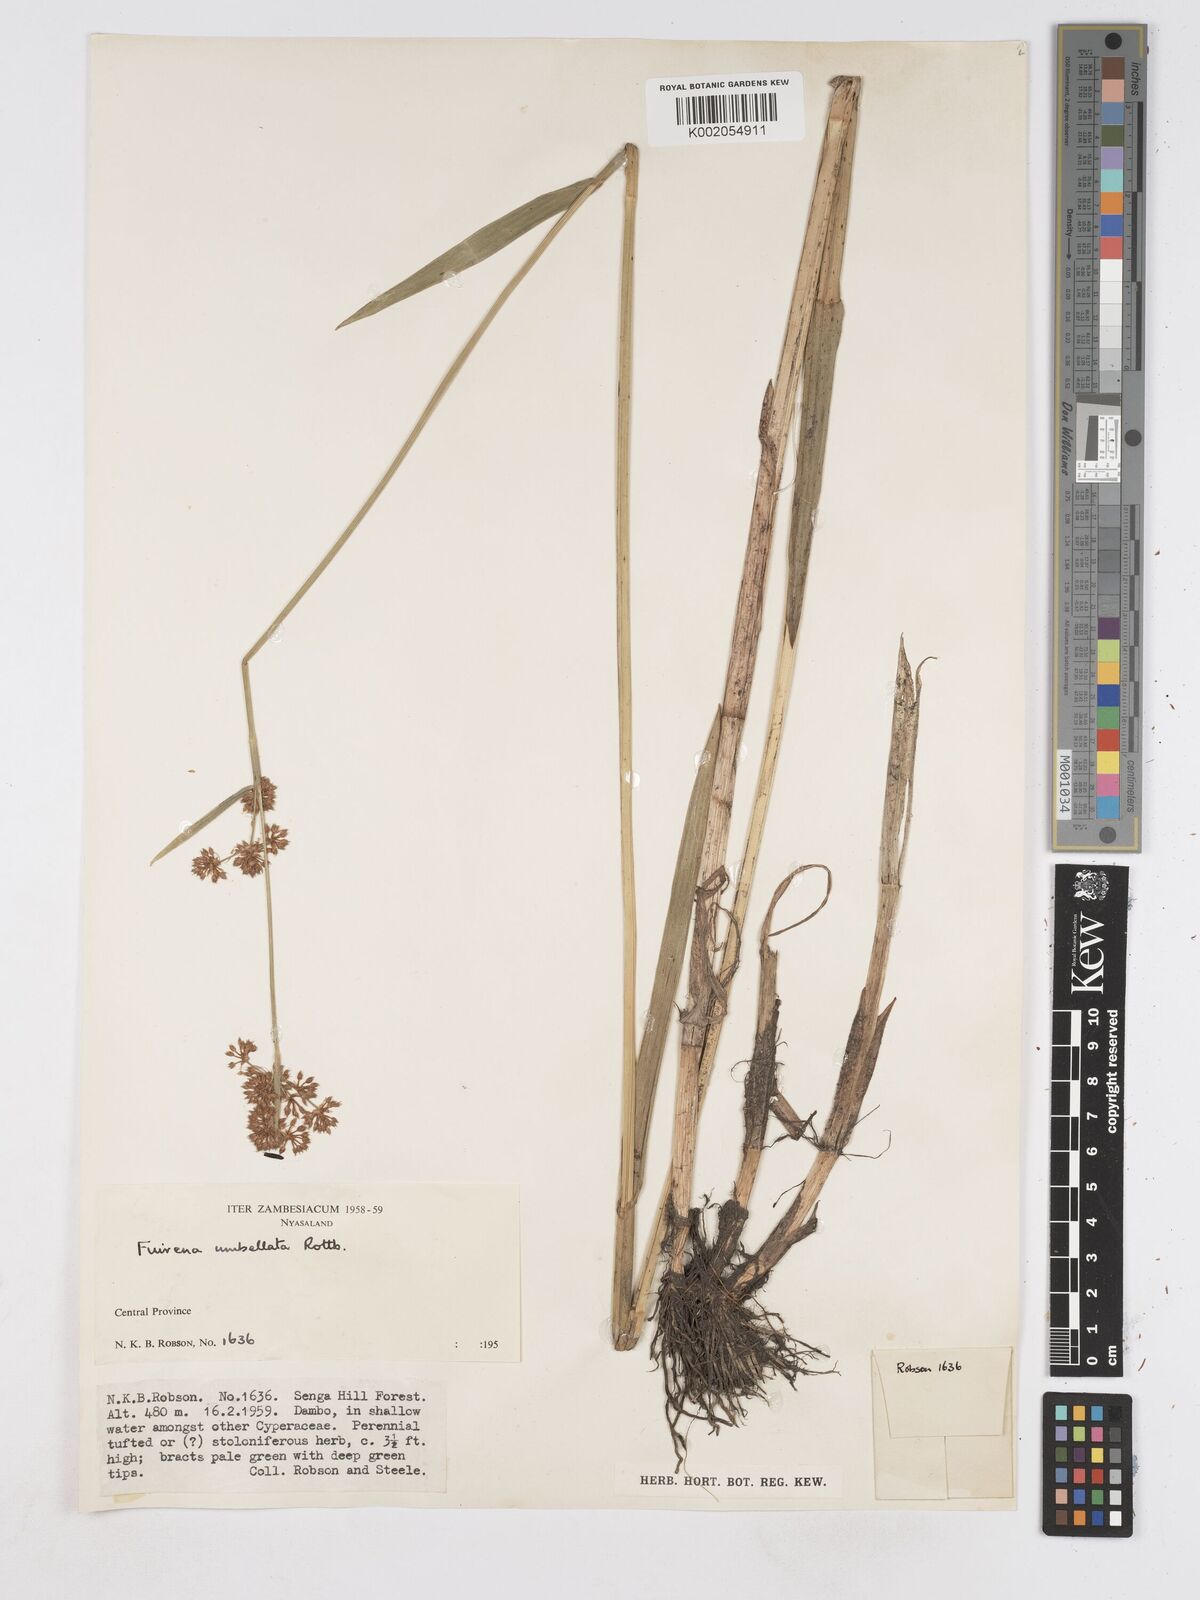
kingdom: Plantae
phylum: Tracheophyta
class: Liliopsida
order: Poales
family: Cyperaceae
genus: Fuirena
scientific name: Fuirena umbellata
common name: Yefen
